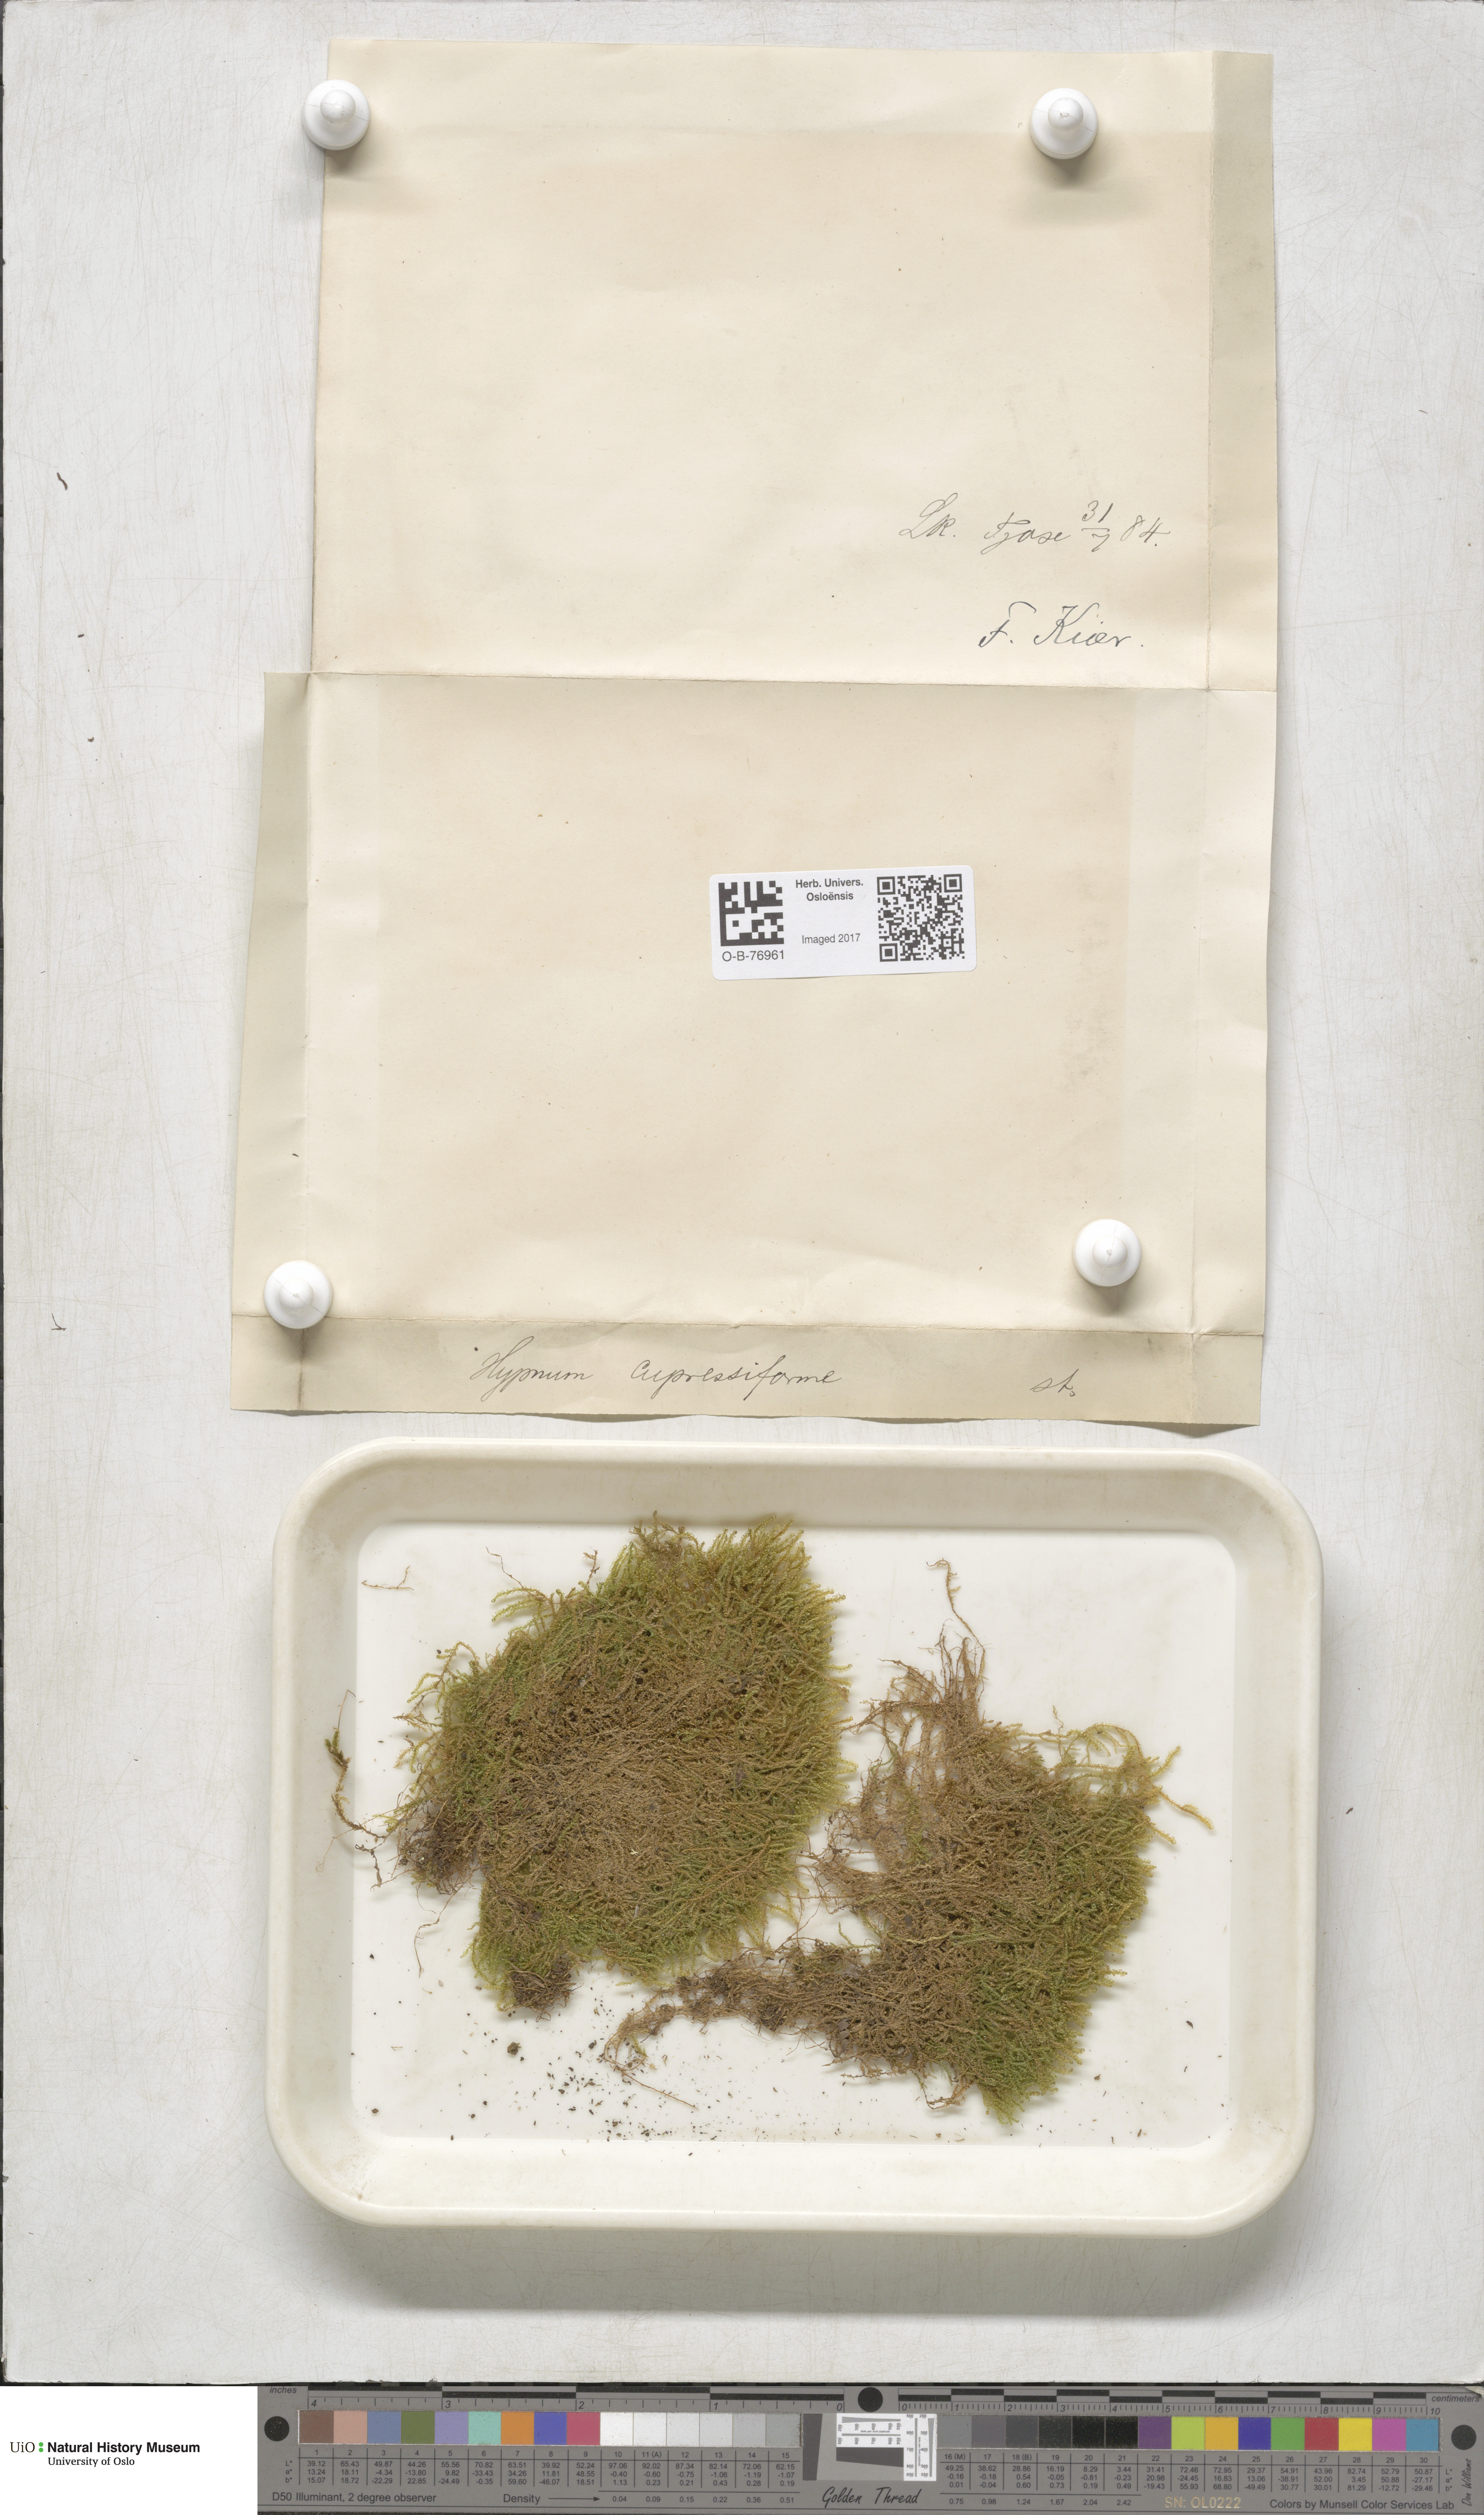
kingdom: Plantae
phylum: Bryophyta
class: Bryopsida
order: Hypnales
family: Hypnaceae
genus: Hypnum
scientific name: Hypnum cupressiforme
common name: Cypress-leaved plait-moss
